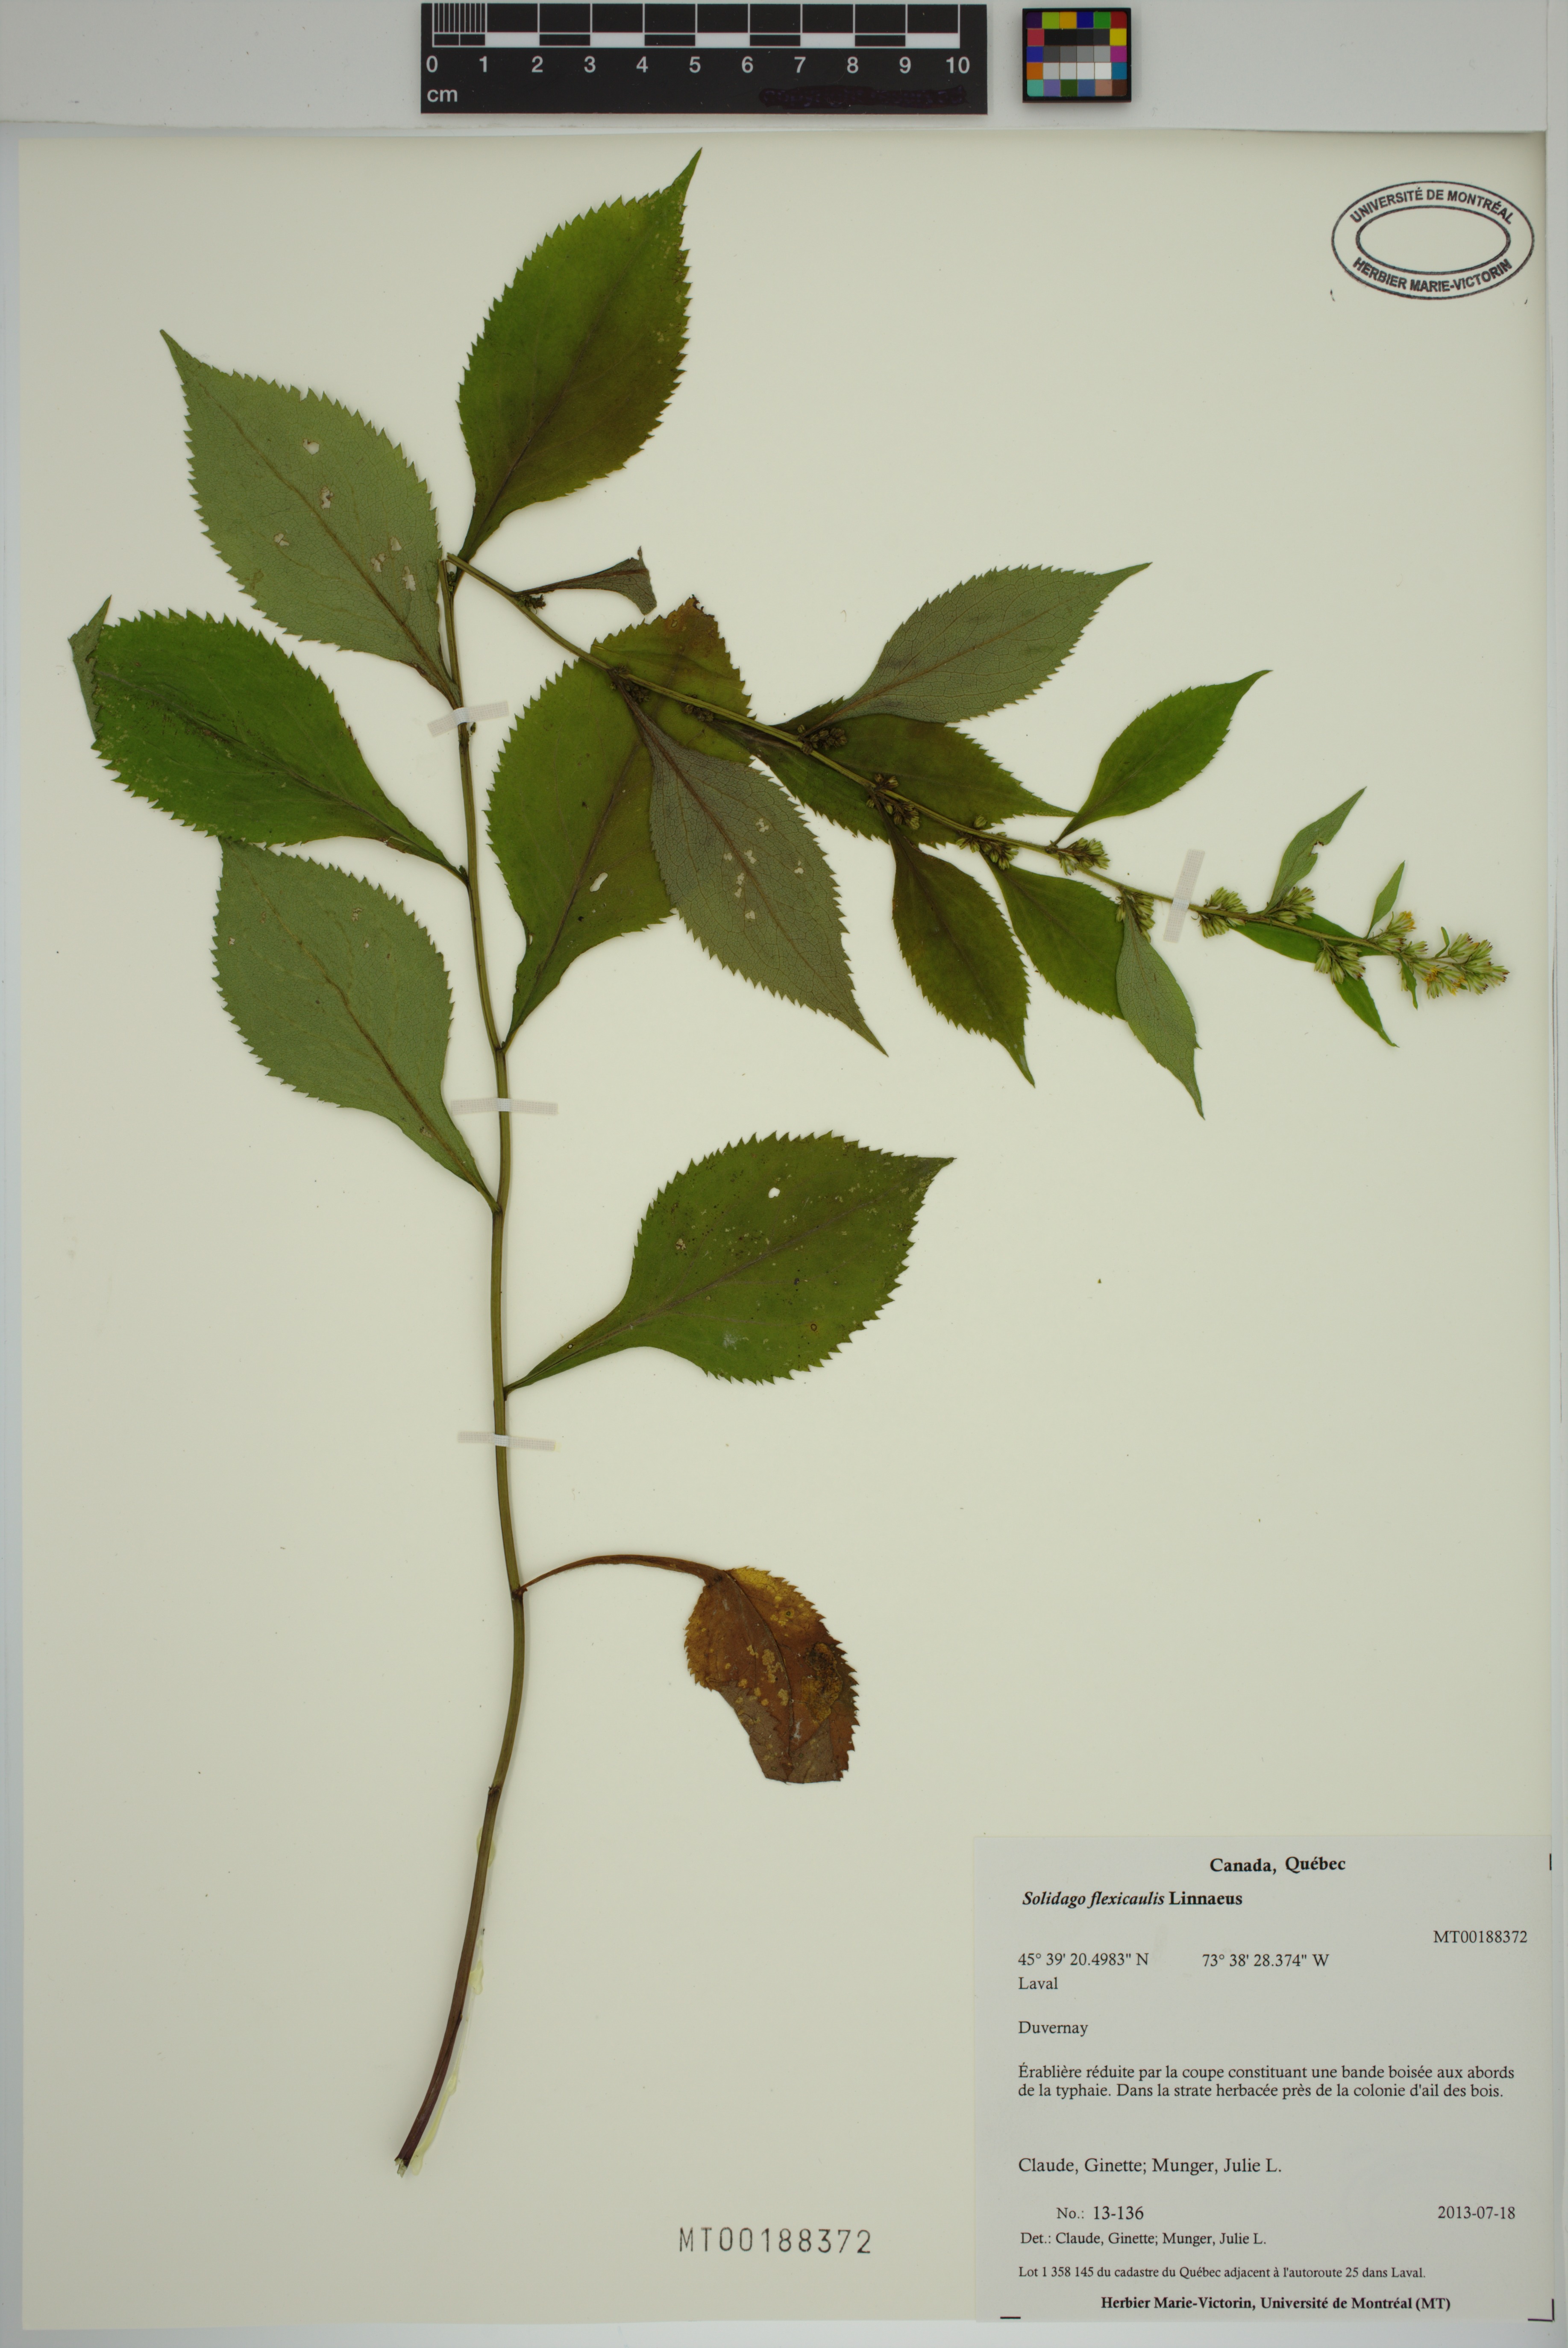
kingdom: Plantae
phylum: Tracheophyta
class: Magnoliopsida
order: Asterales
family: Asteraceae
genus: Solidago
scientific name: Solidago flexicaulis
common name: Zig-zag goldenrod
